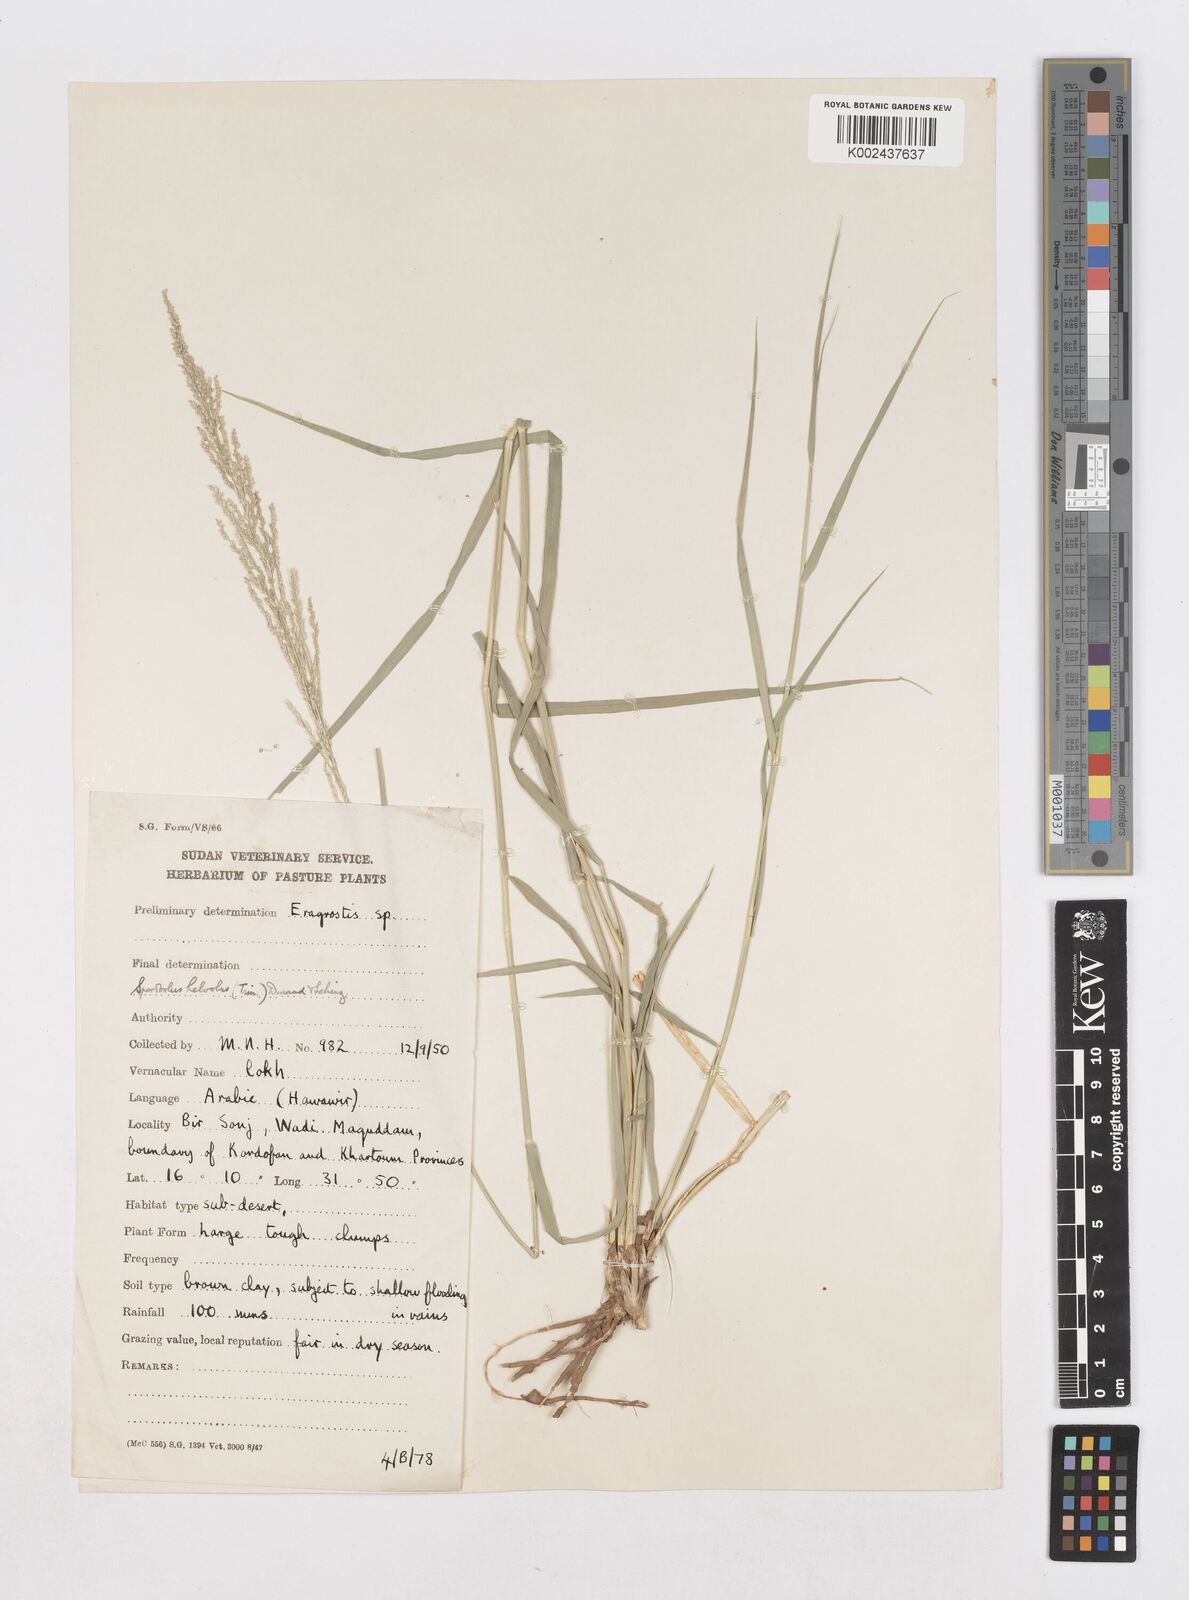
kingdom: Plantae
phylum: Tracheophyta
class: Liliopsida
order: Poales
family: Poaceae
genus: Sporobolus
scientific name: Sporobolus helvolus
